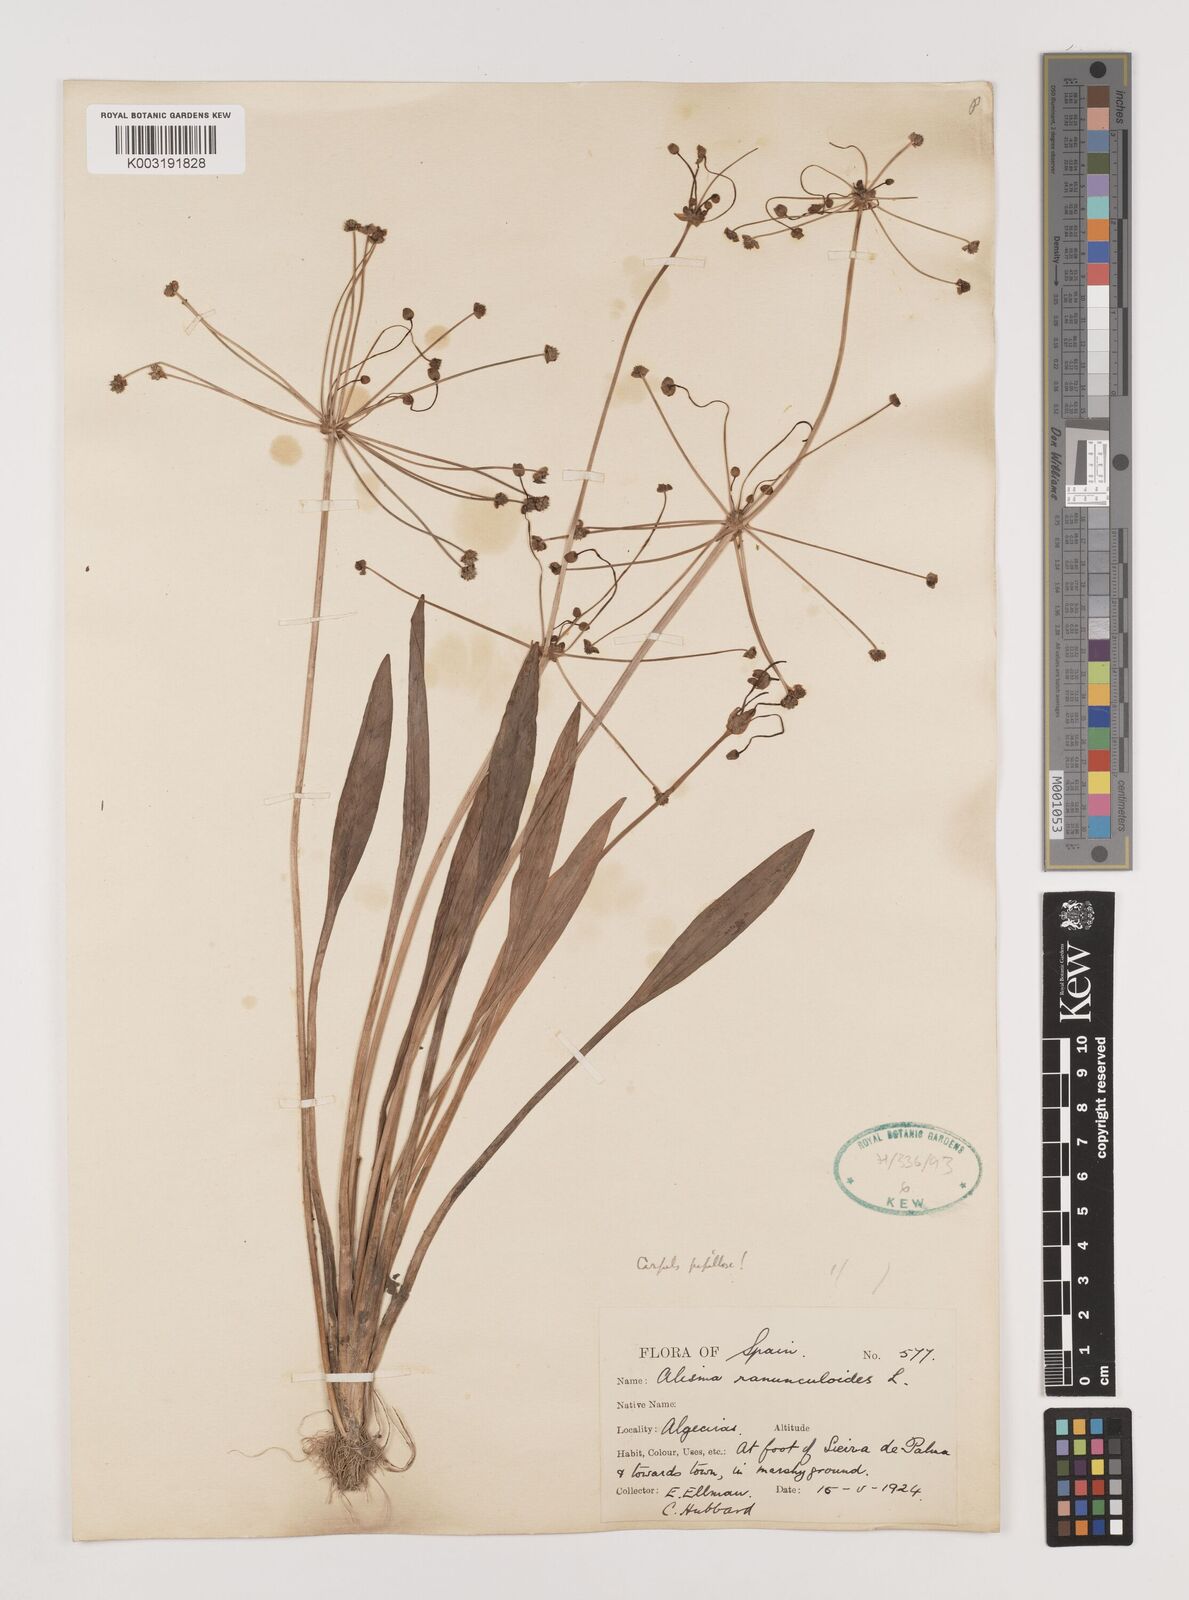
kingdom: Plantae
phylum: Tracheophyta
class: Liliopsida
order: Alismatales
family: Alismataceae
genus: Baldellia
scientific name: Baldellia ranunculoides
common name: Lesser water-plantain
